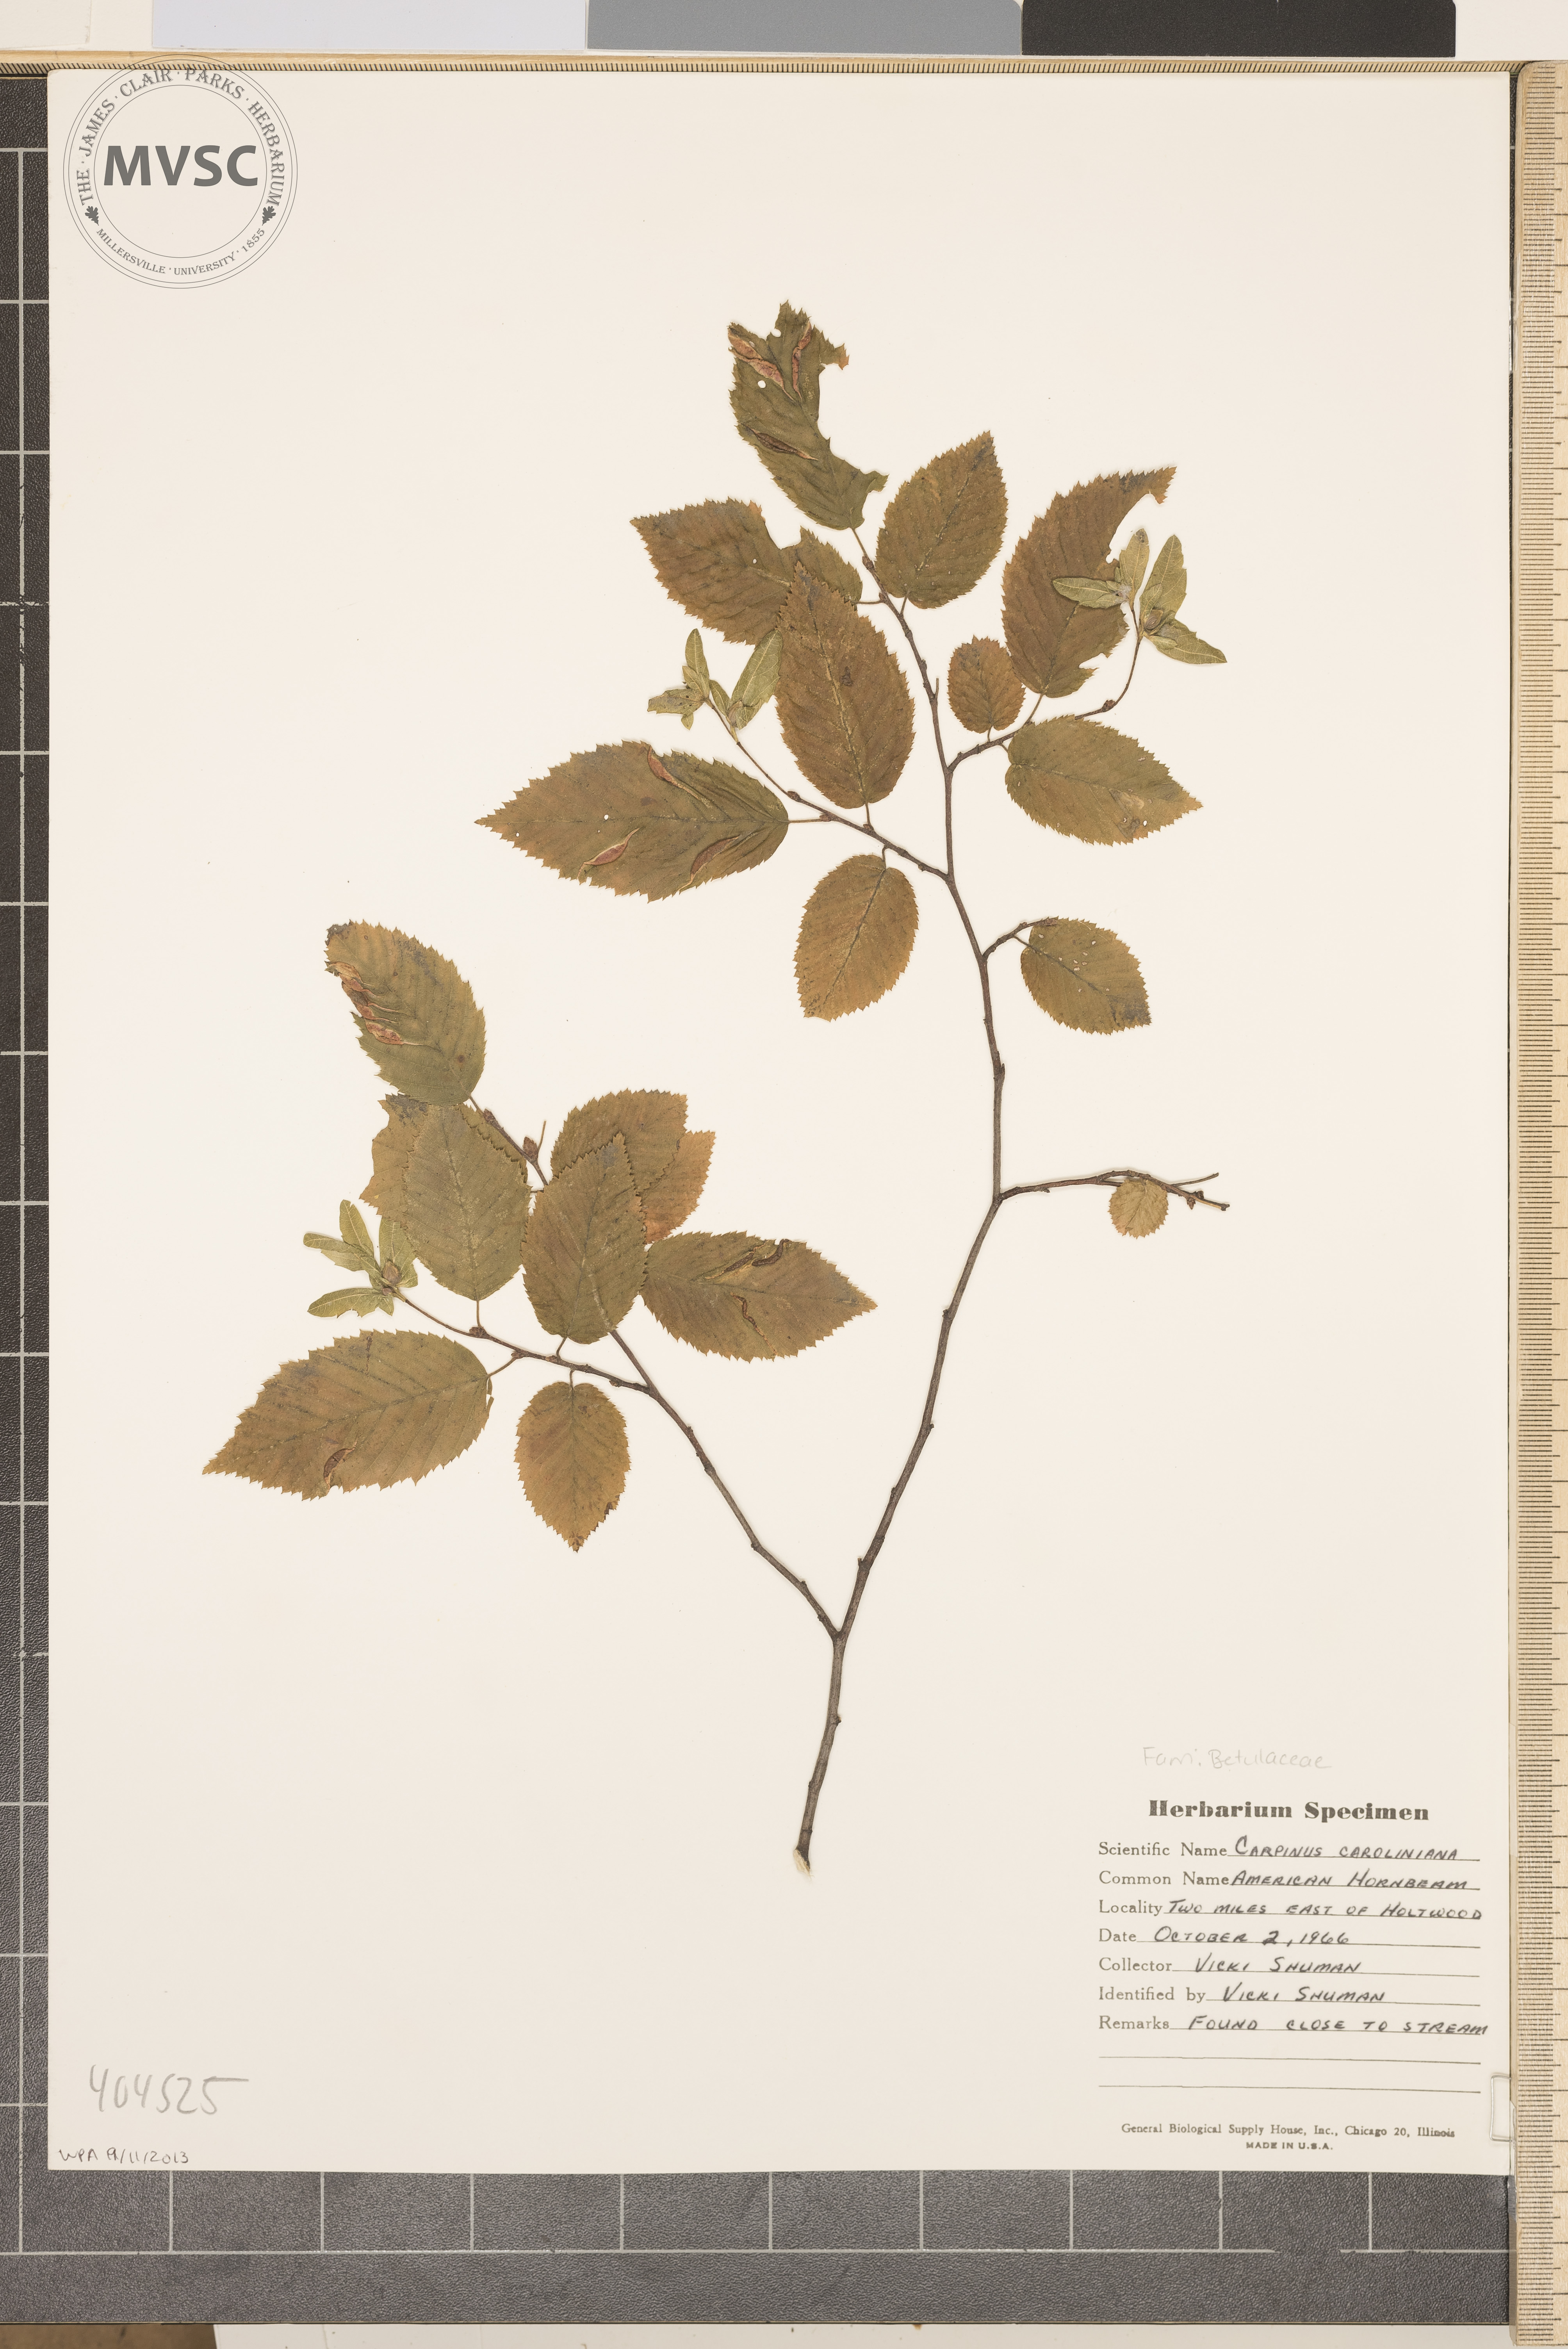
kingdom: Plantae
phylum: Tracheophyta
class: Magnoliopsida
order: Fagales
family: Betulaceae
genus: Carpinus
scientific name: Carpinus caroliniana
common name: American Hornbeam
